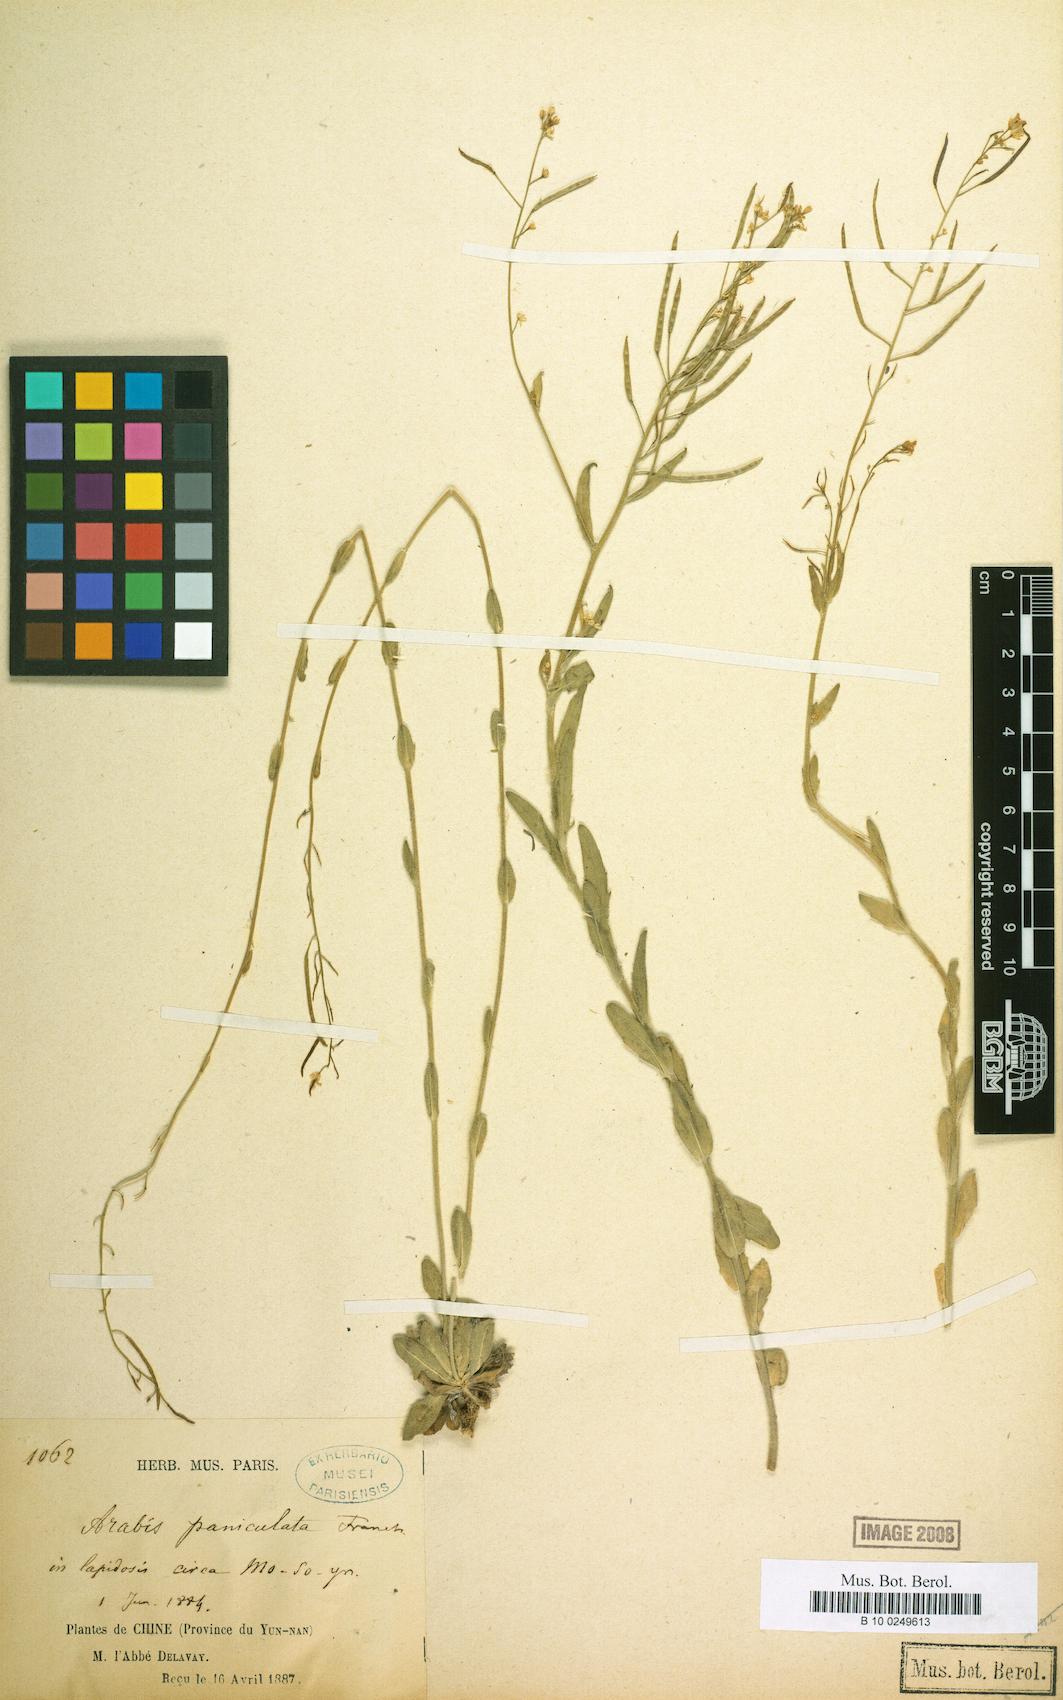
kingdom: Plantae
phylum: Tracheophyta
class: Magnoliopsida
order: Brassicales
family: Brassicaceae
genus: Arabis
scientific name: Arabis paniculata
